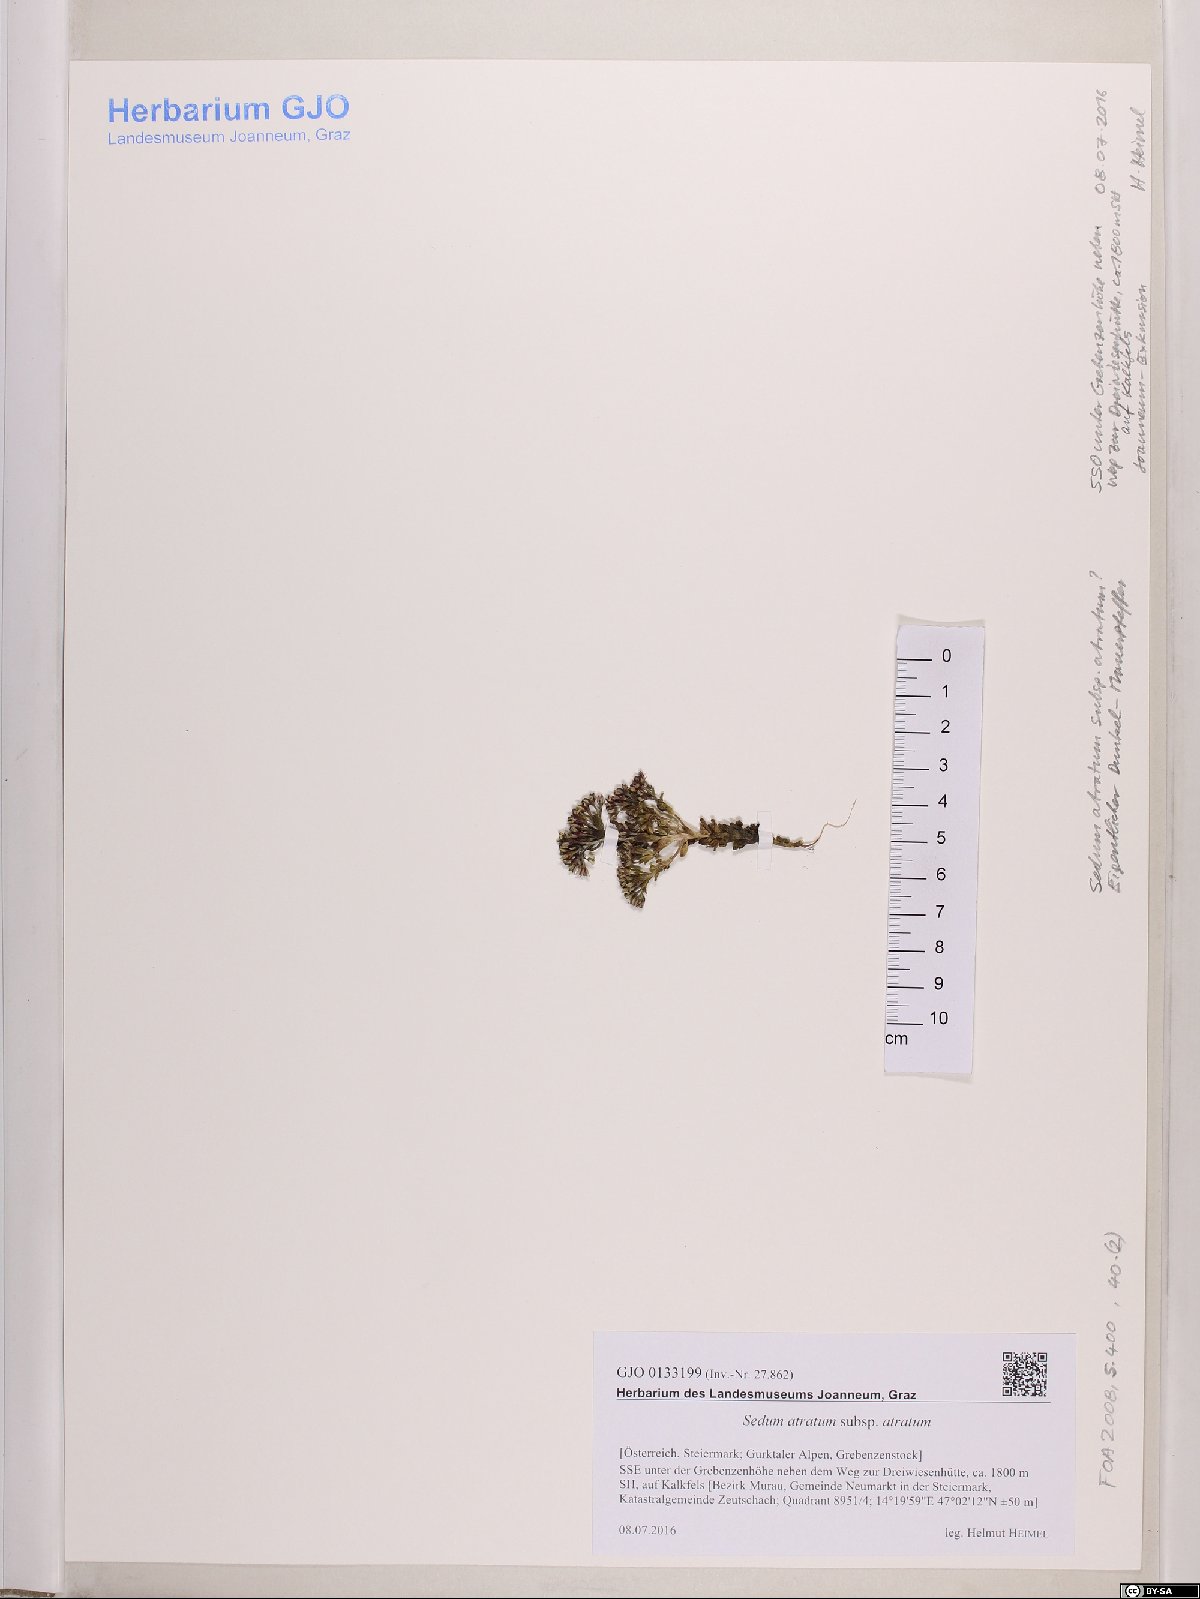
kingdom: Plantae
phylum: Tracheophyta
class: Magnoliopsida
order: Saxifragales
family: Crassulaceae
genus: Sedum
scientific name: Sedum atratum
